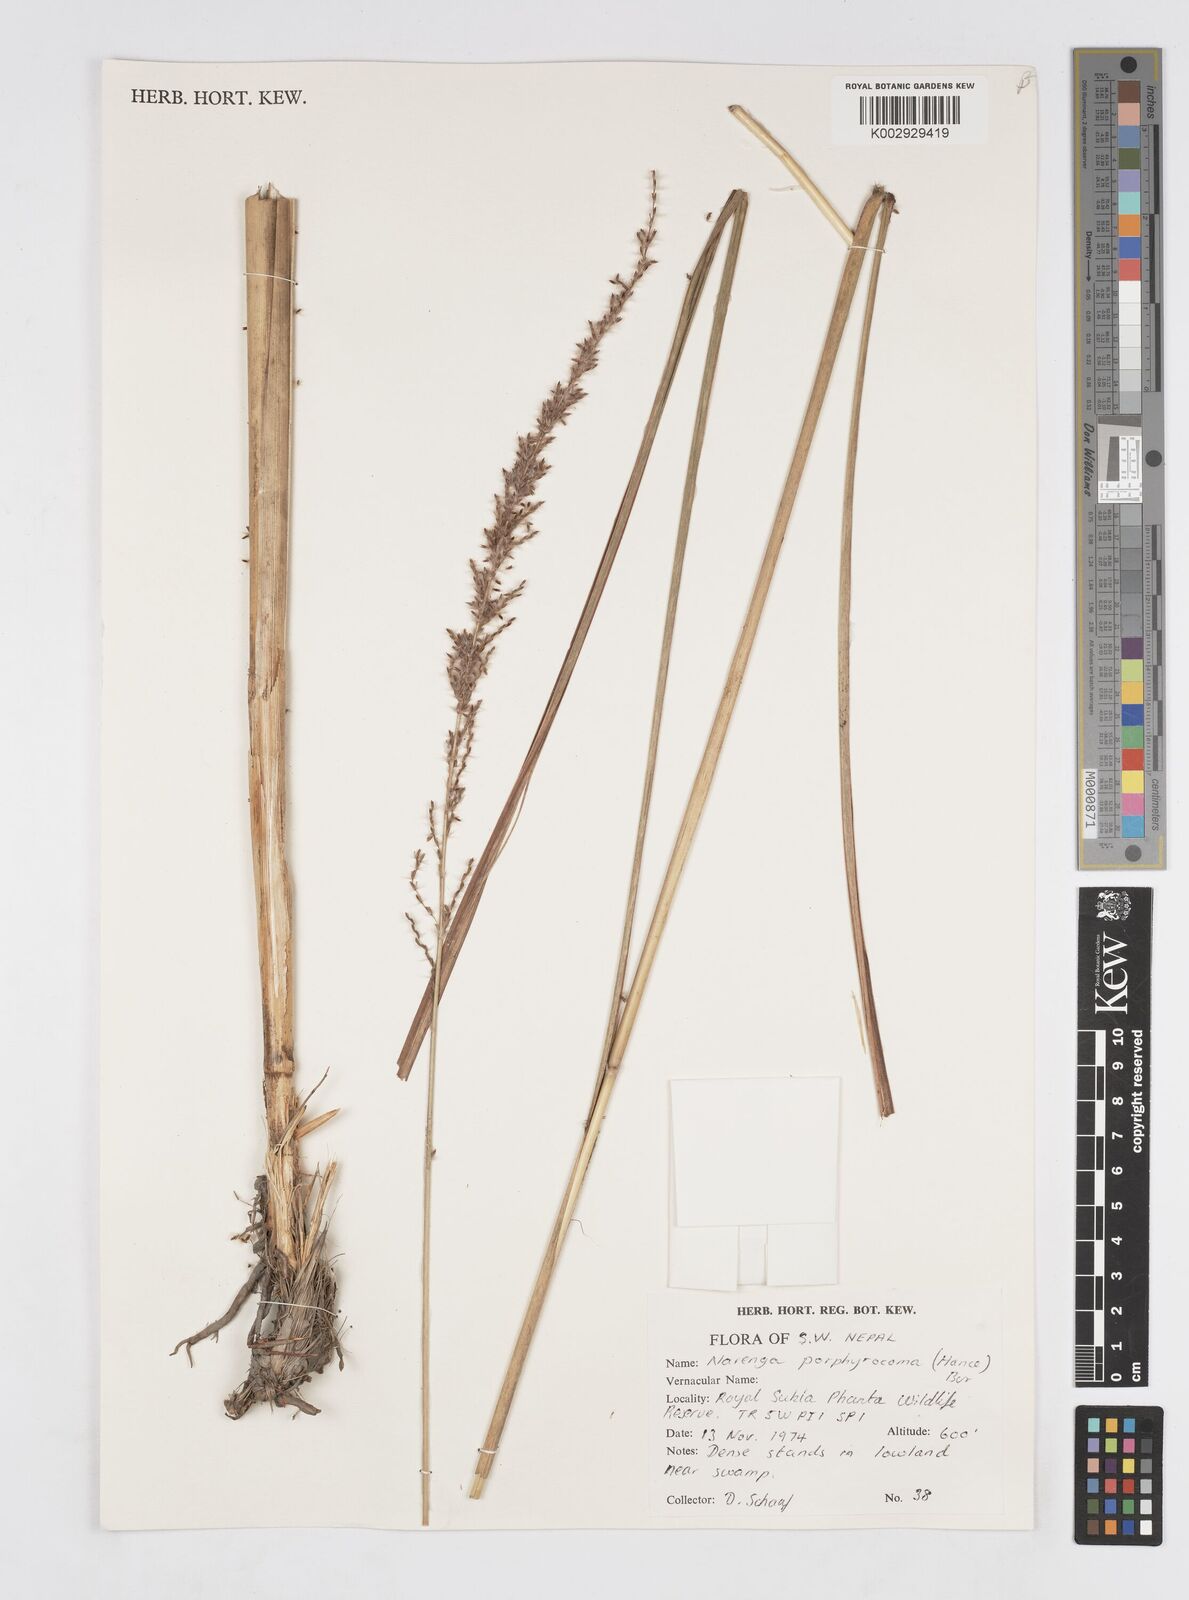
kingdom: Plantae
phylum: Tracheophyta
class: Liliopsida
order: Poales
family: Poaceae
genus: Narenga
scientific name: Narenga porphyrocoma
